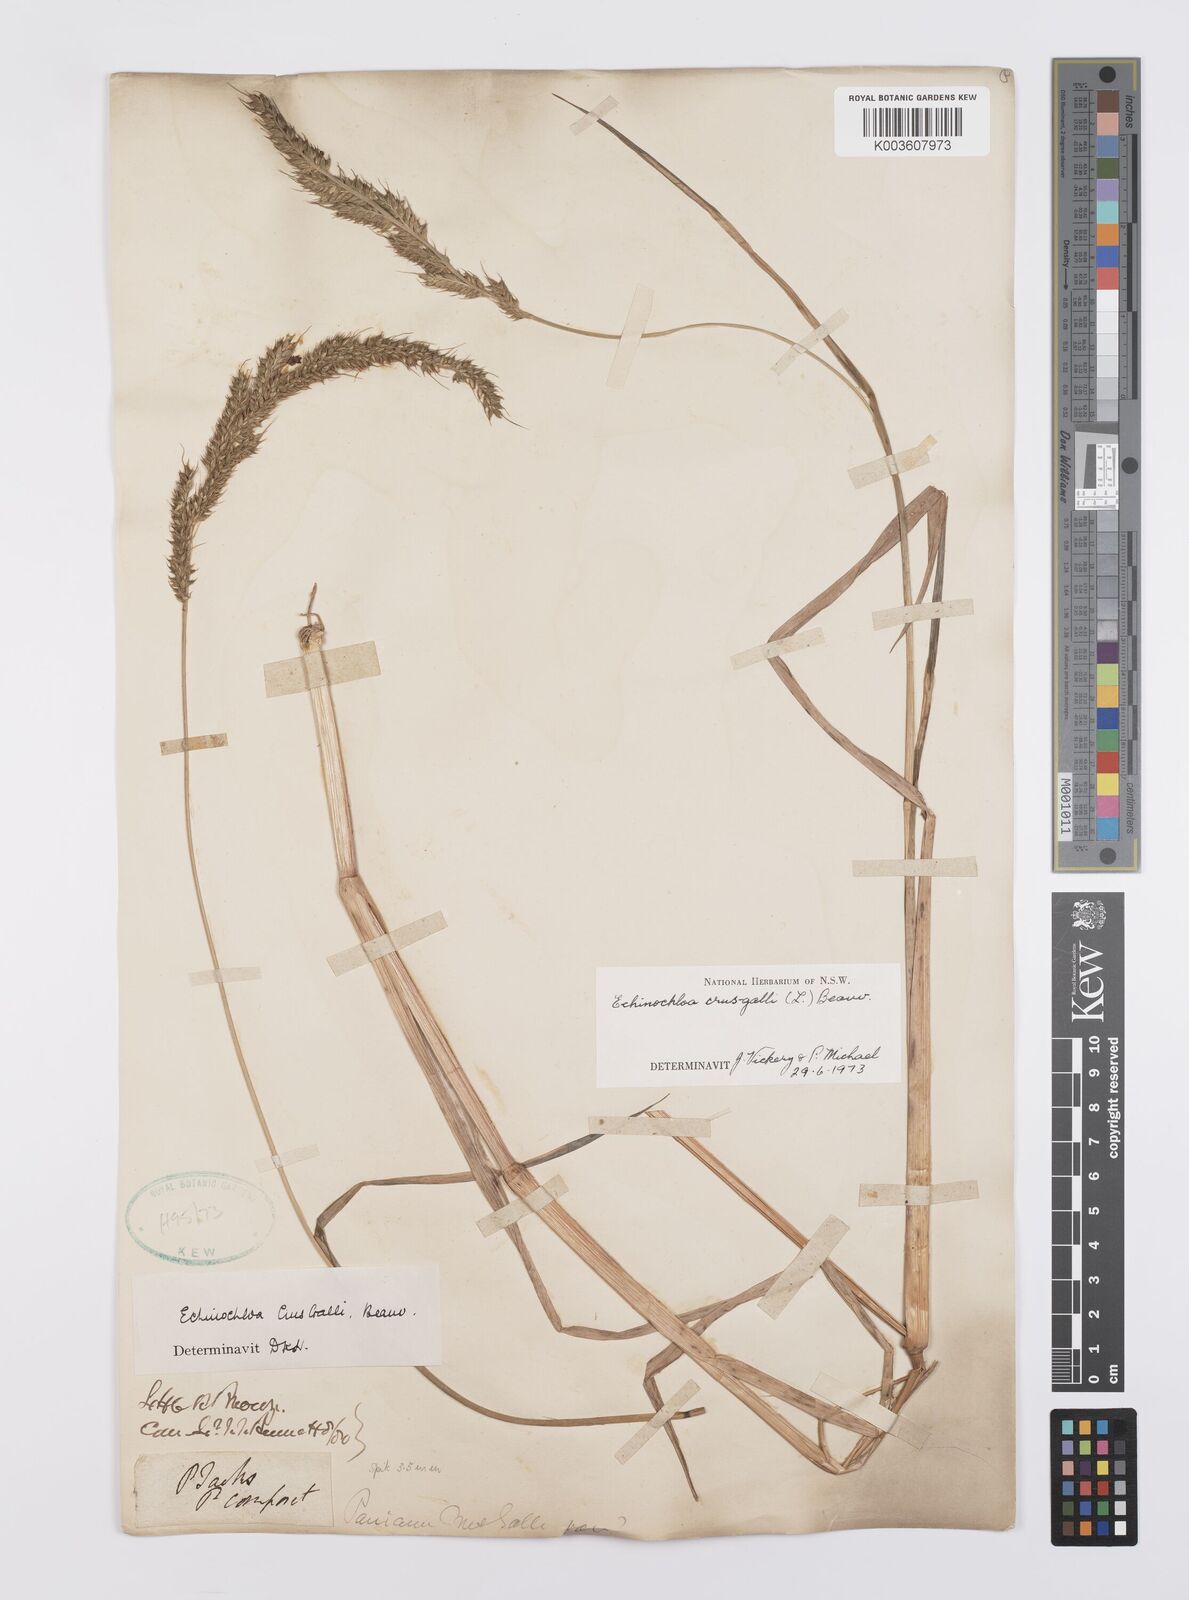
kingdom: Plantae
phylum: Tracheophyta
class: Liliopsida
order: Poales
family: Poaceae
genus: Echinochloa
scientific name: Echinochloa crus-galli
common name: Cockspur
